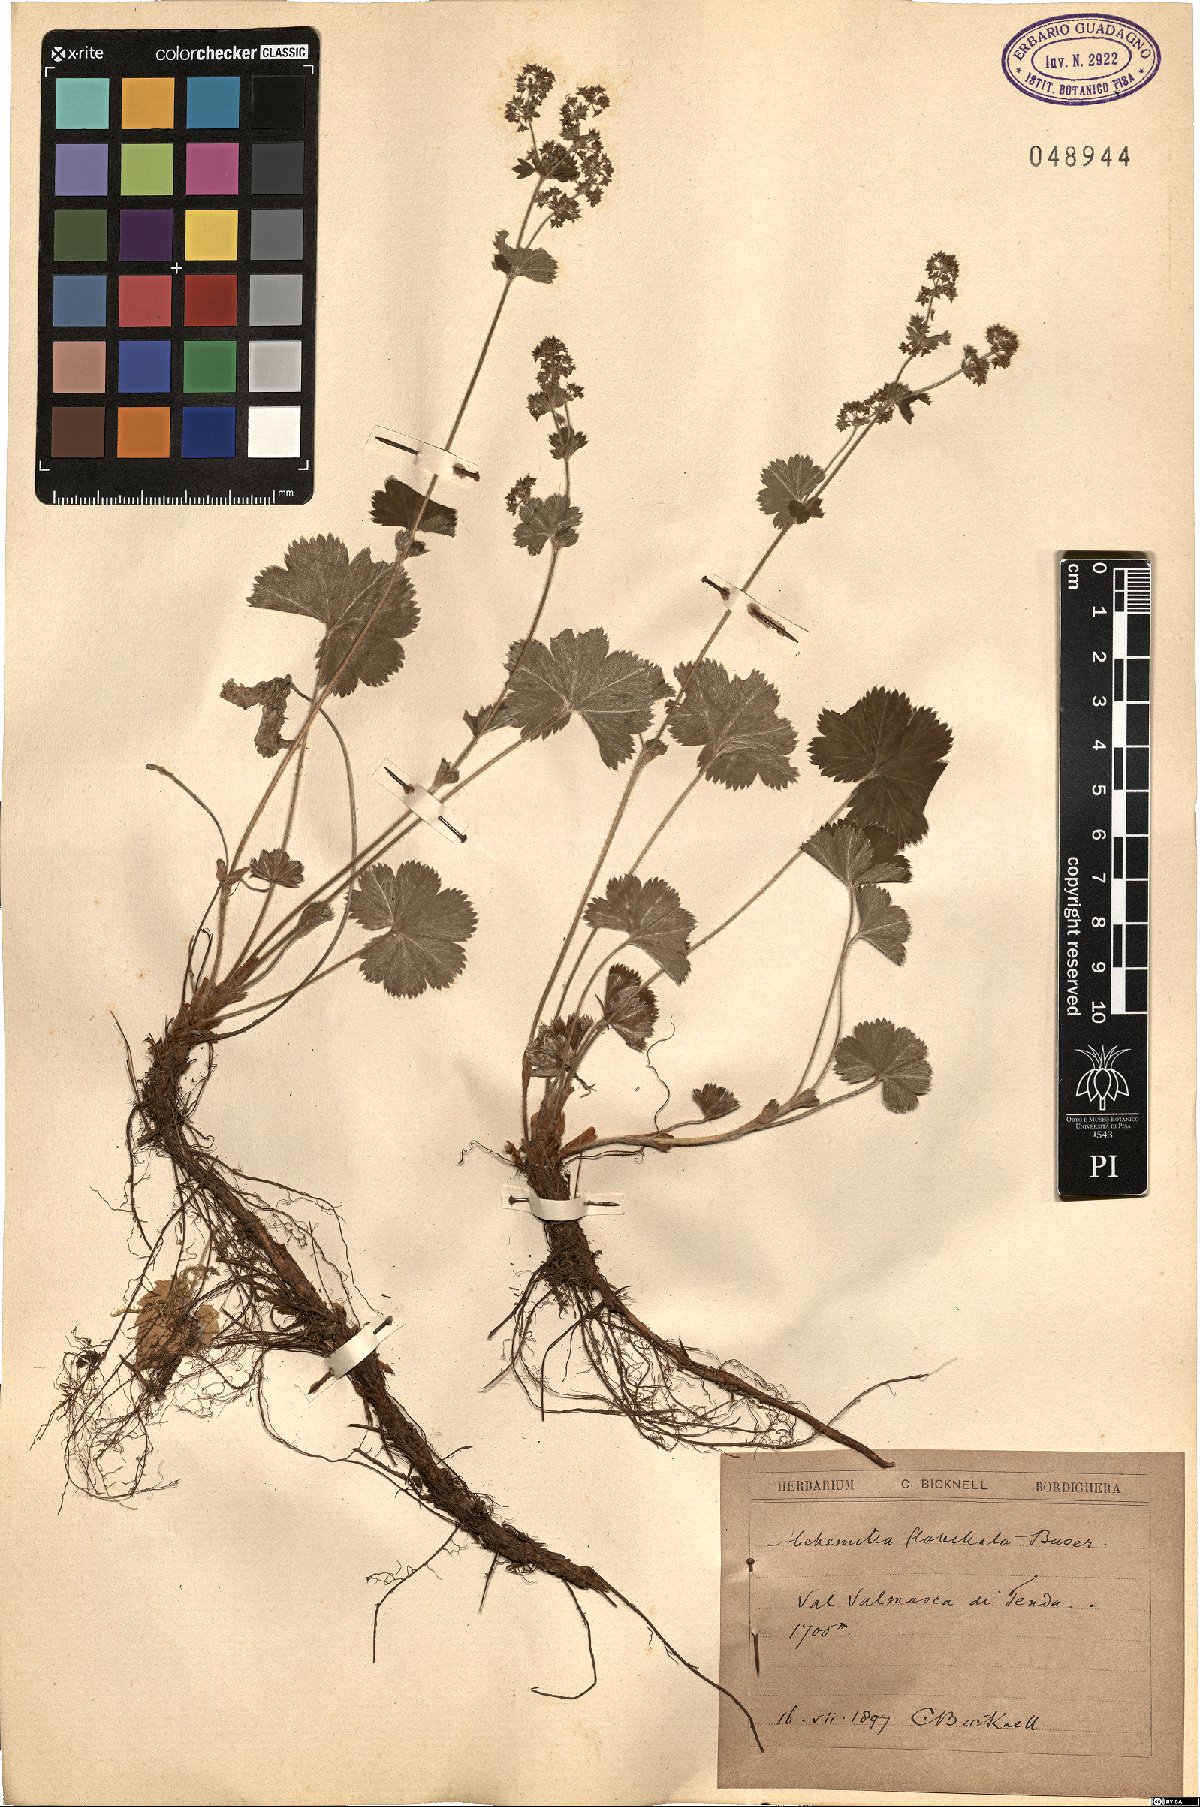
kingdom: Plantae
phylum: Tracheophyta
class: Magnoliopsida
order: Rosales
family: Rosaceae
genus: Alchemilla
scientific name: Alchemilla flabellata
